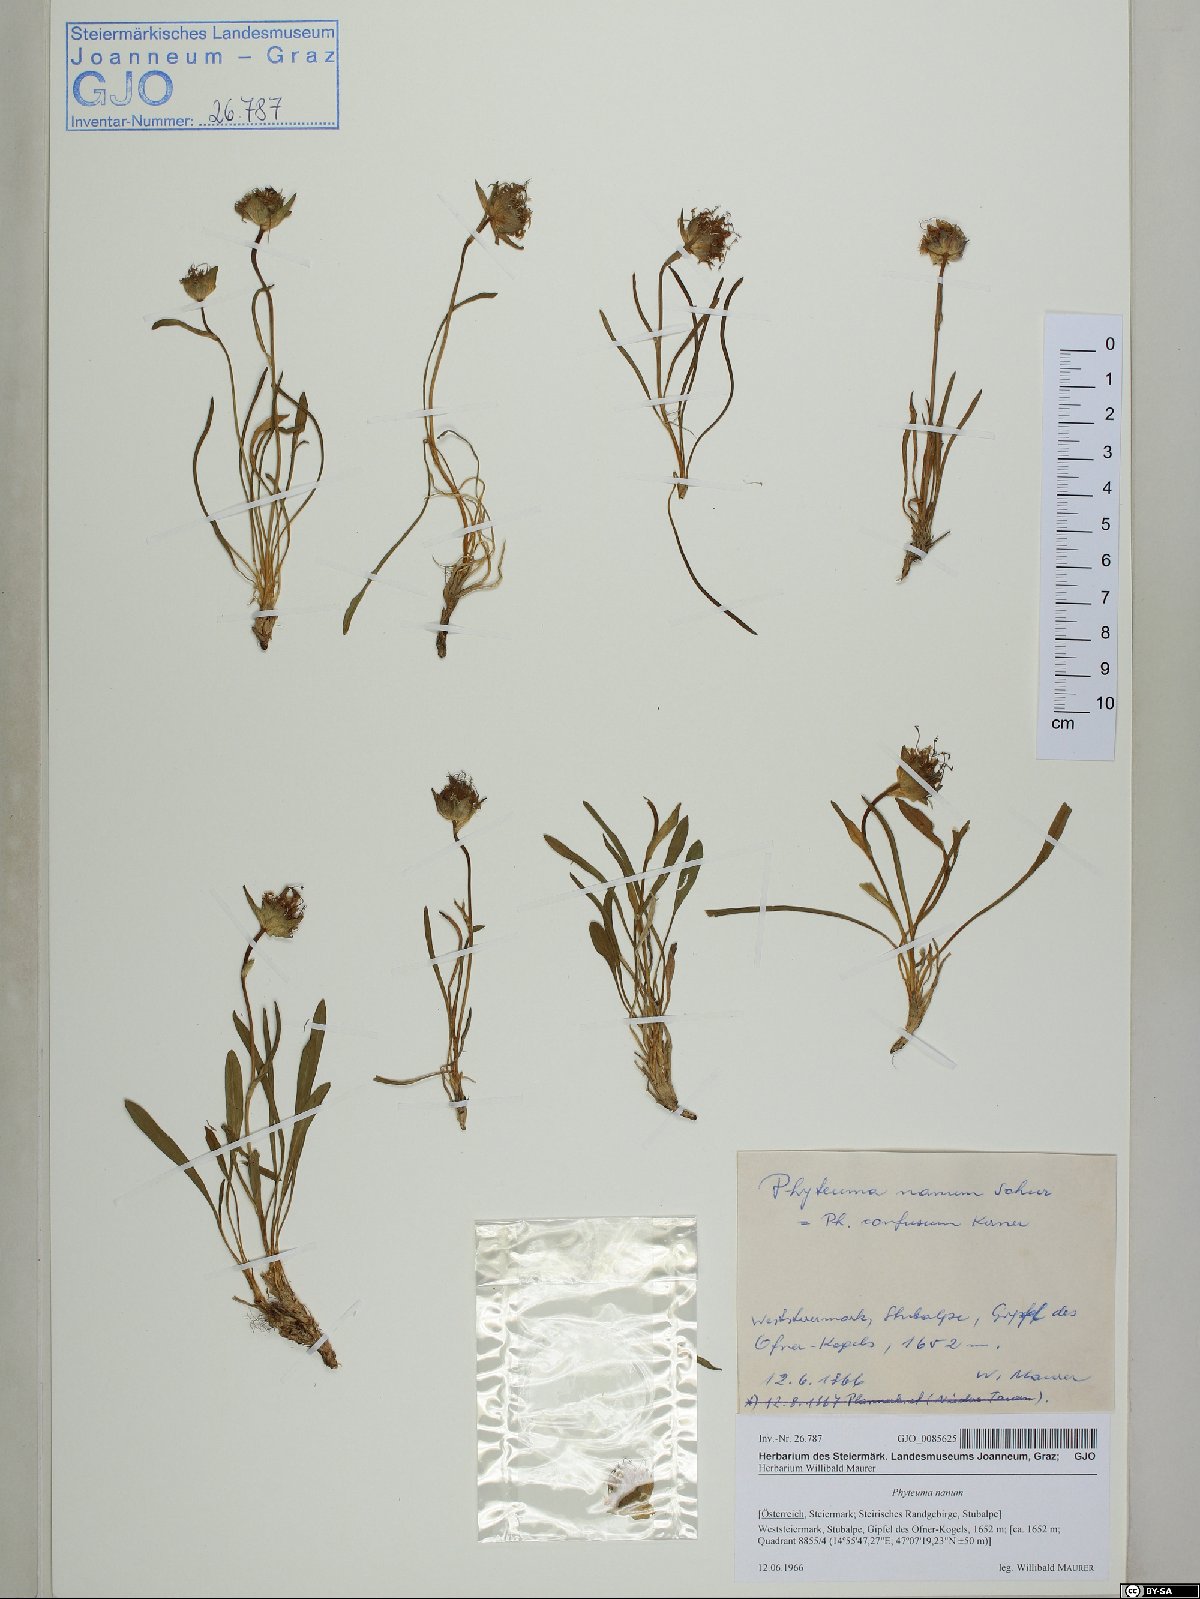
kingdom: Plantae
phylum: Tracheophyta
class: Magnoliopsida
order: Asterales
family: Campanulaceae
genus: Phyteuma
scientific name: Phyteuma globulariifolium
